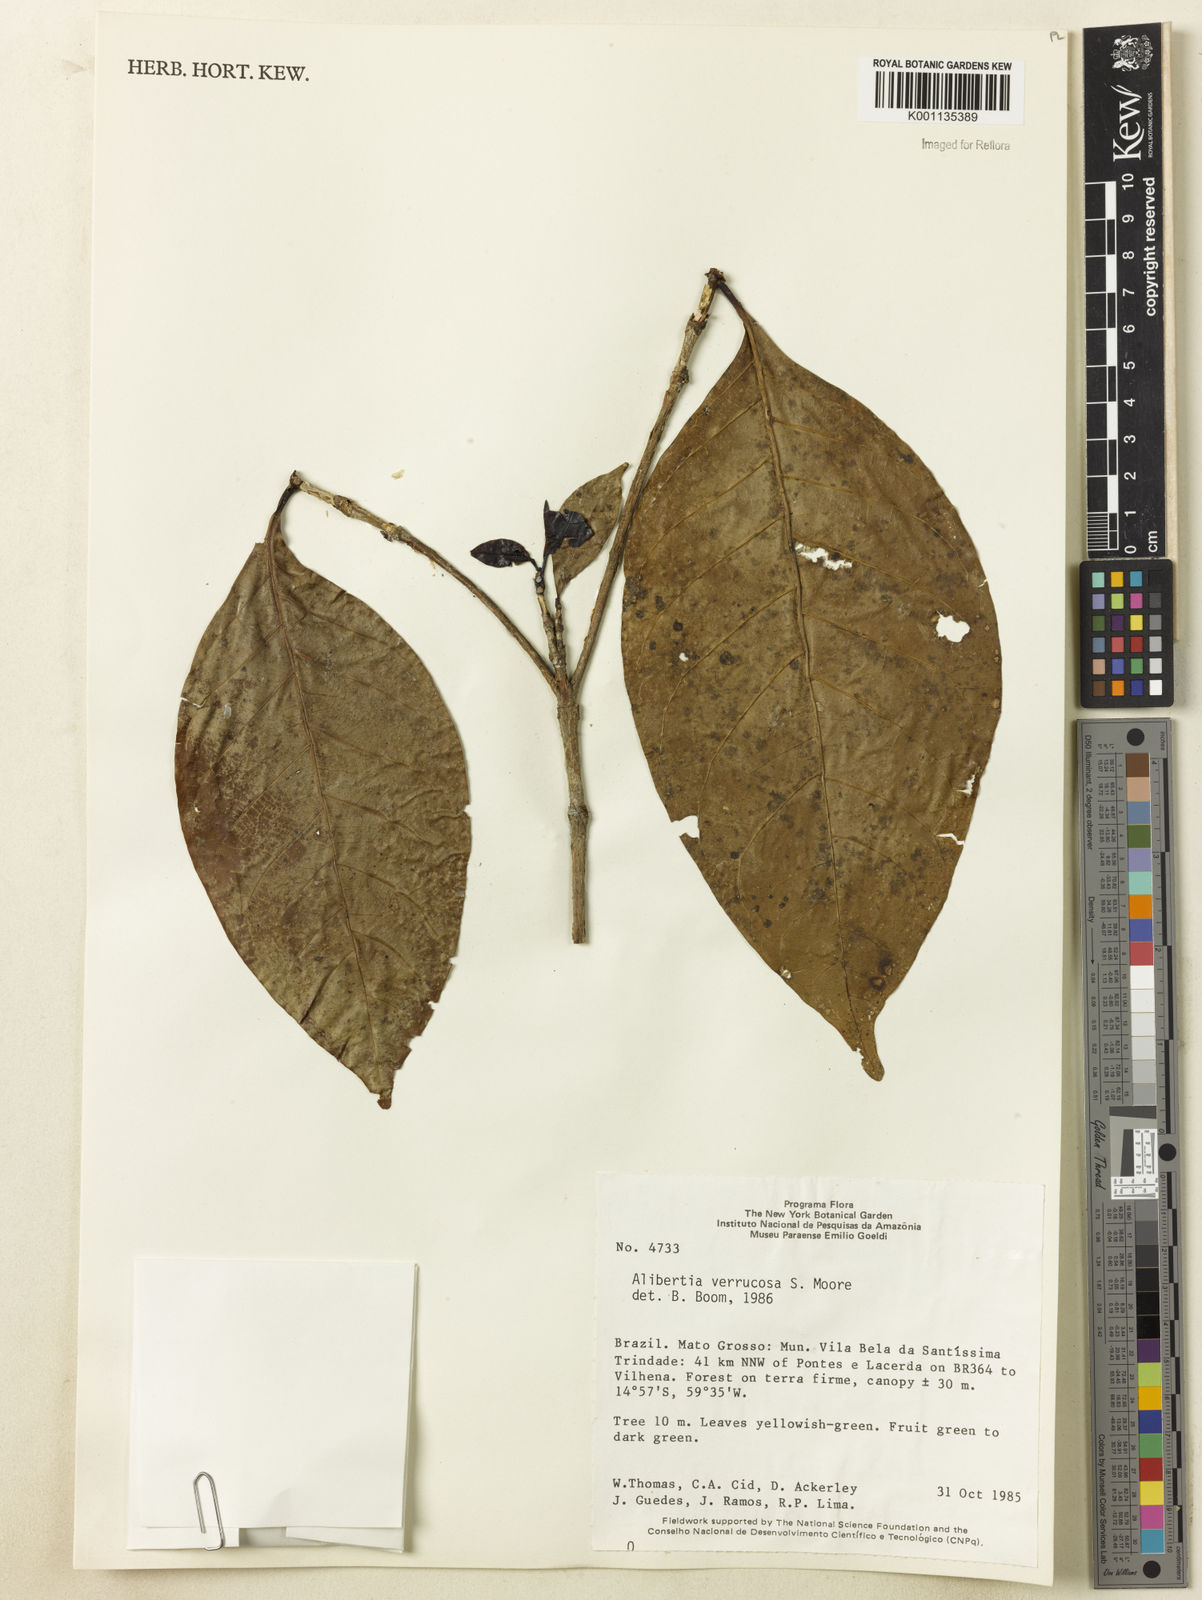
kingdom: Plantae
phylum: Tracheophyta
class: Magnoliopsida
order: Gentianales
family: Rubiaceae
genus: Cordiera
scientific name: Cordiera macrophylla
